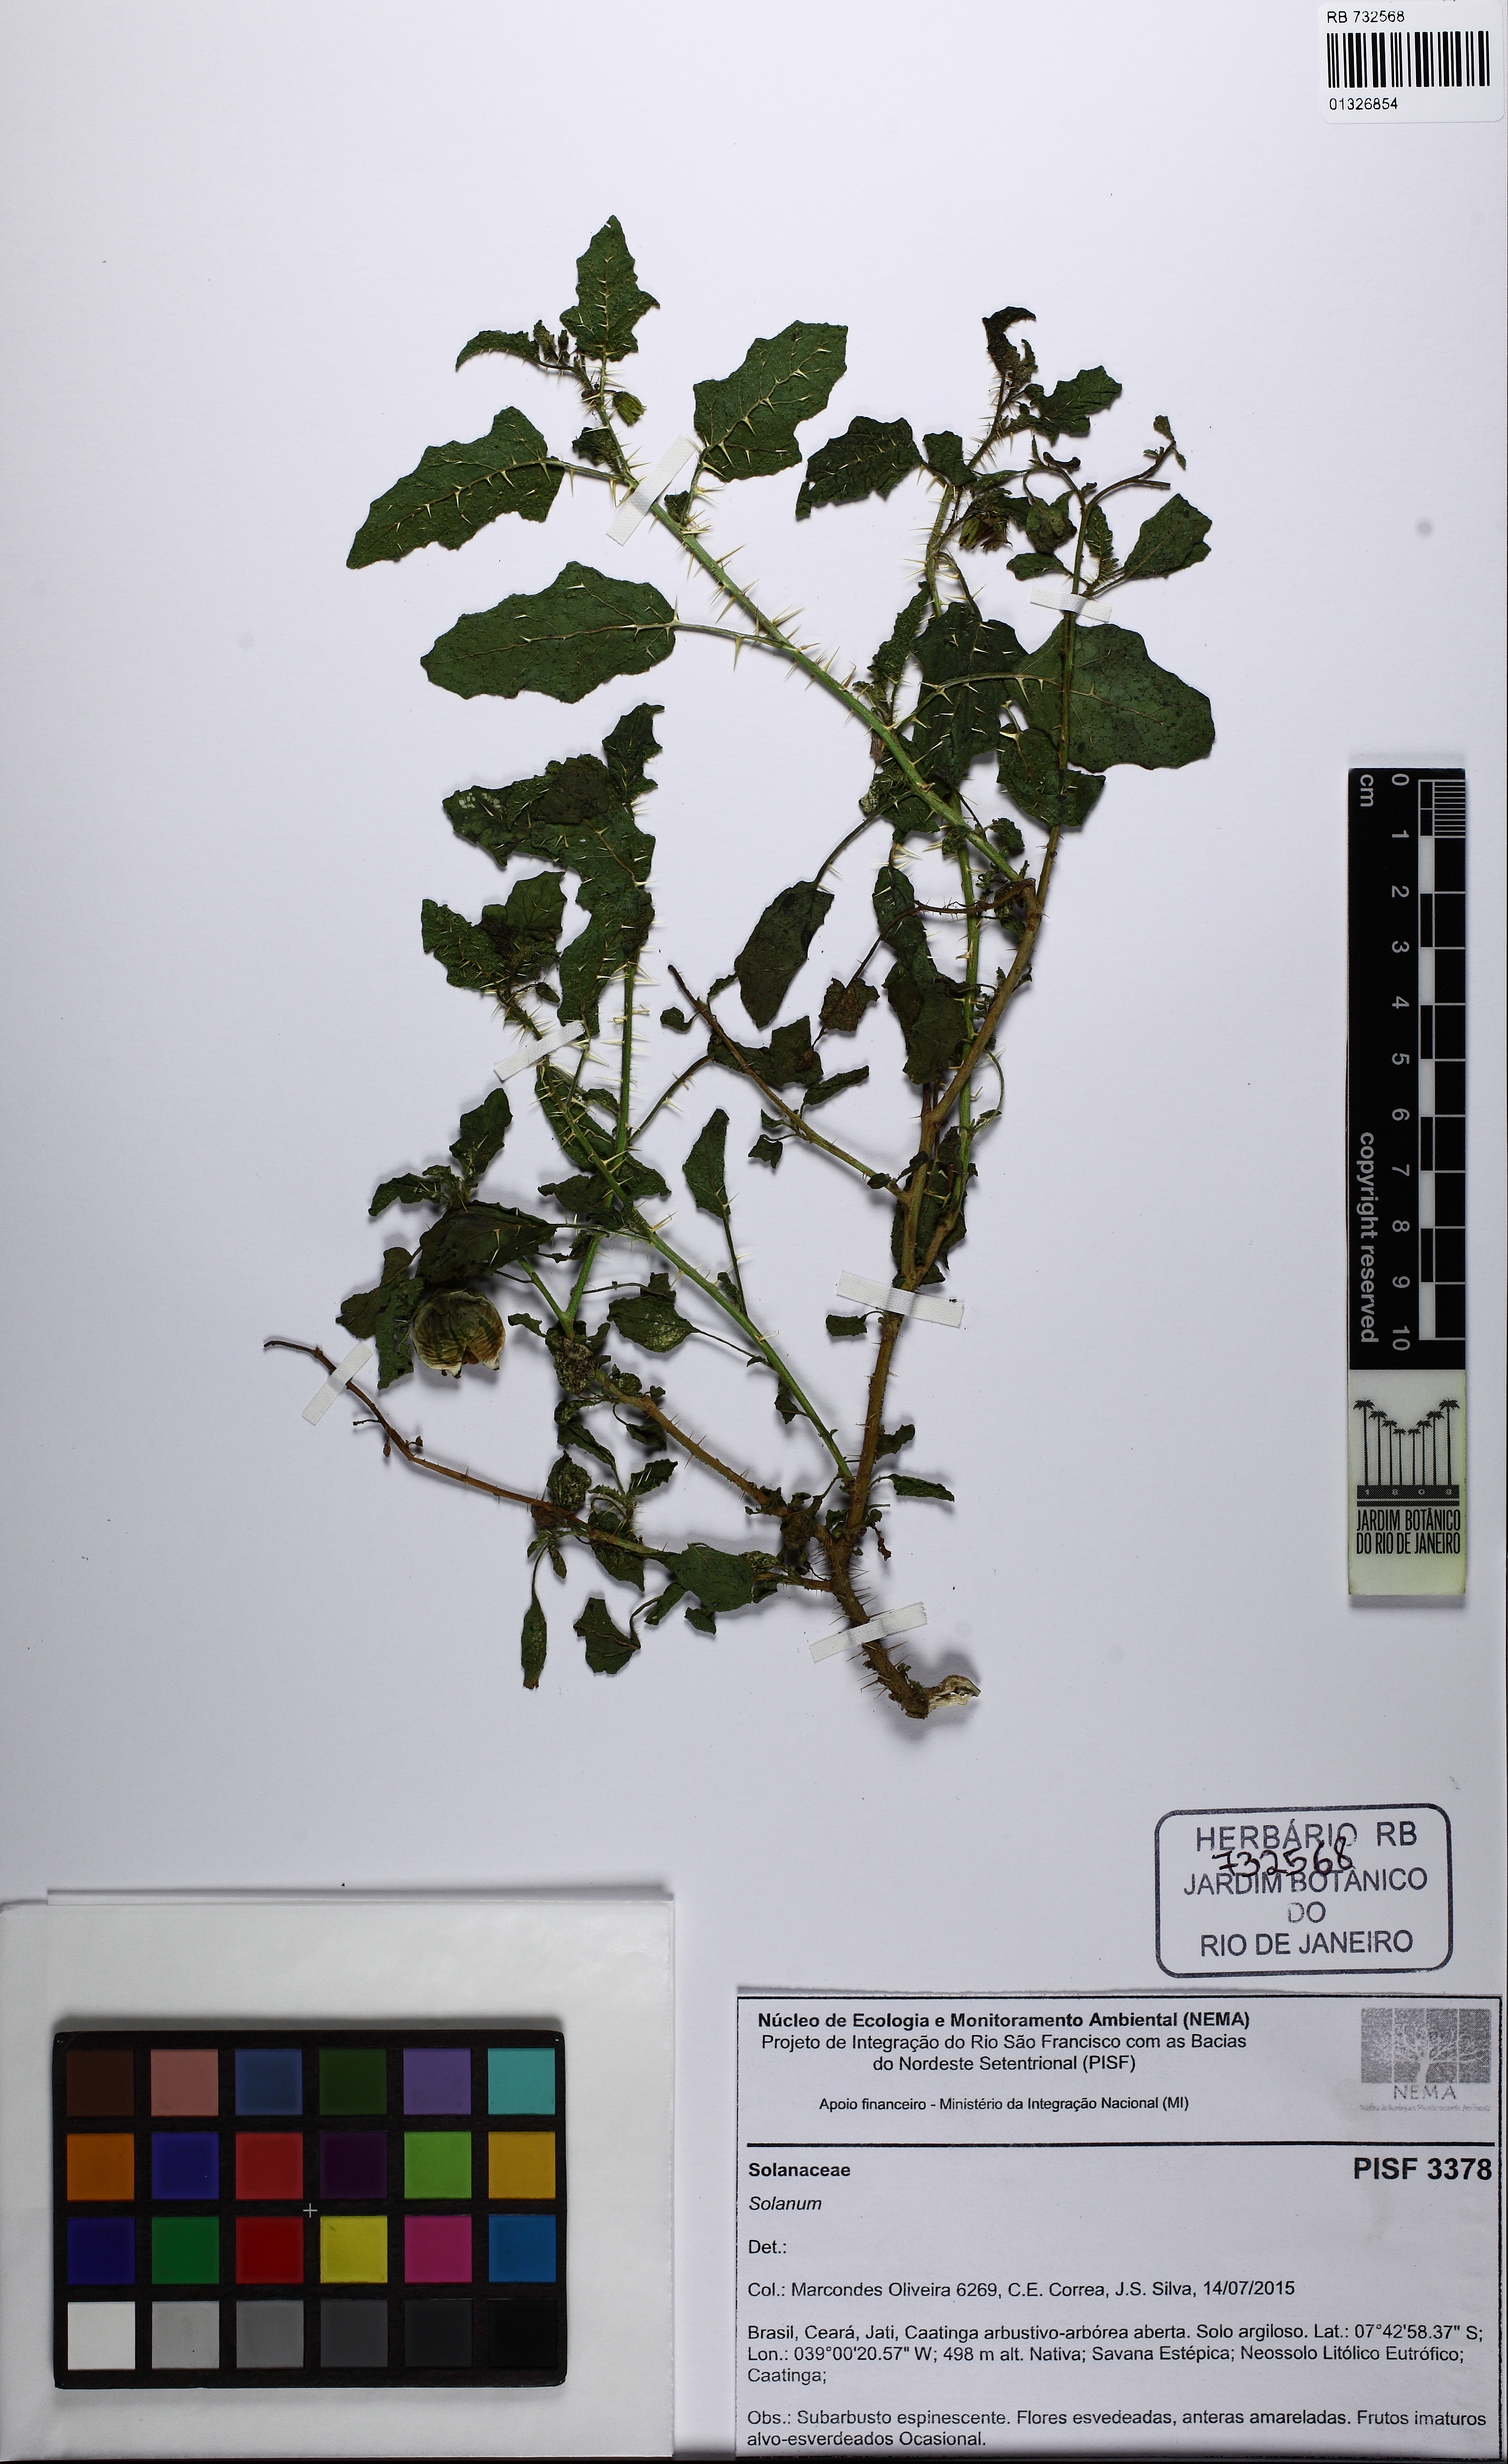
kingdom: Plantae
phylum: Tracheophyta
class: Magnoliopsida
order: Solanales
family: Solanaceae
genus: Solanum
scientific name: Solanum agrarium
